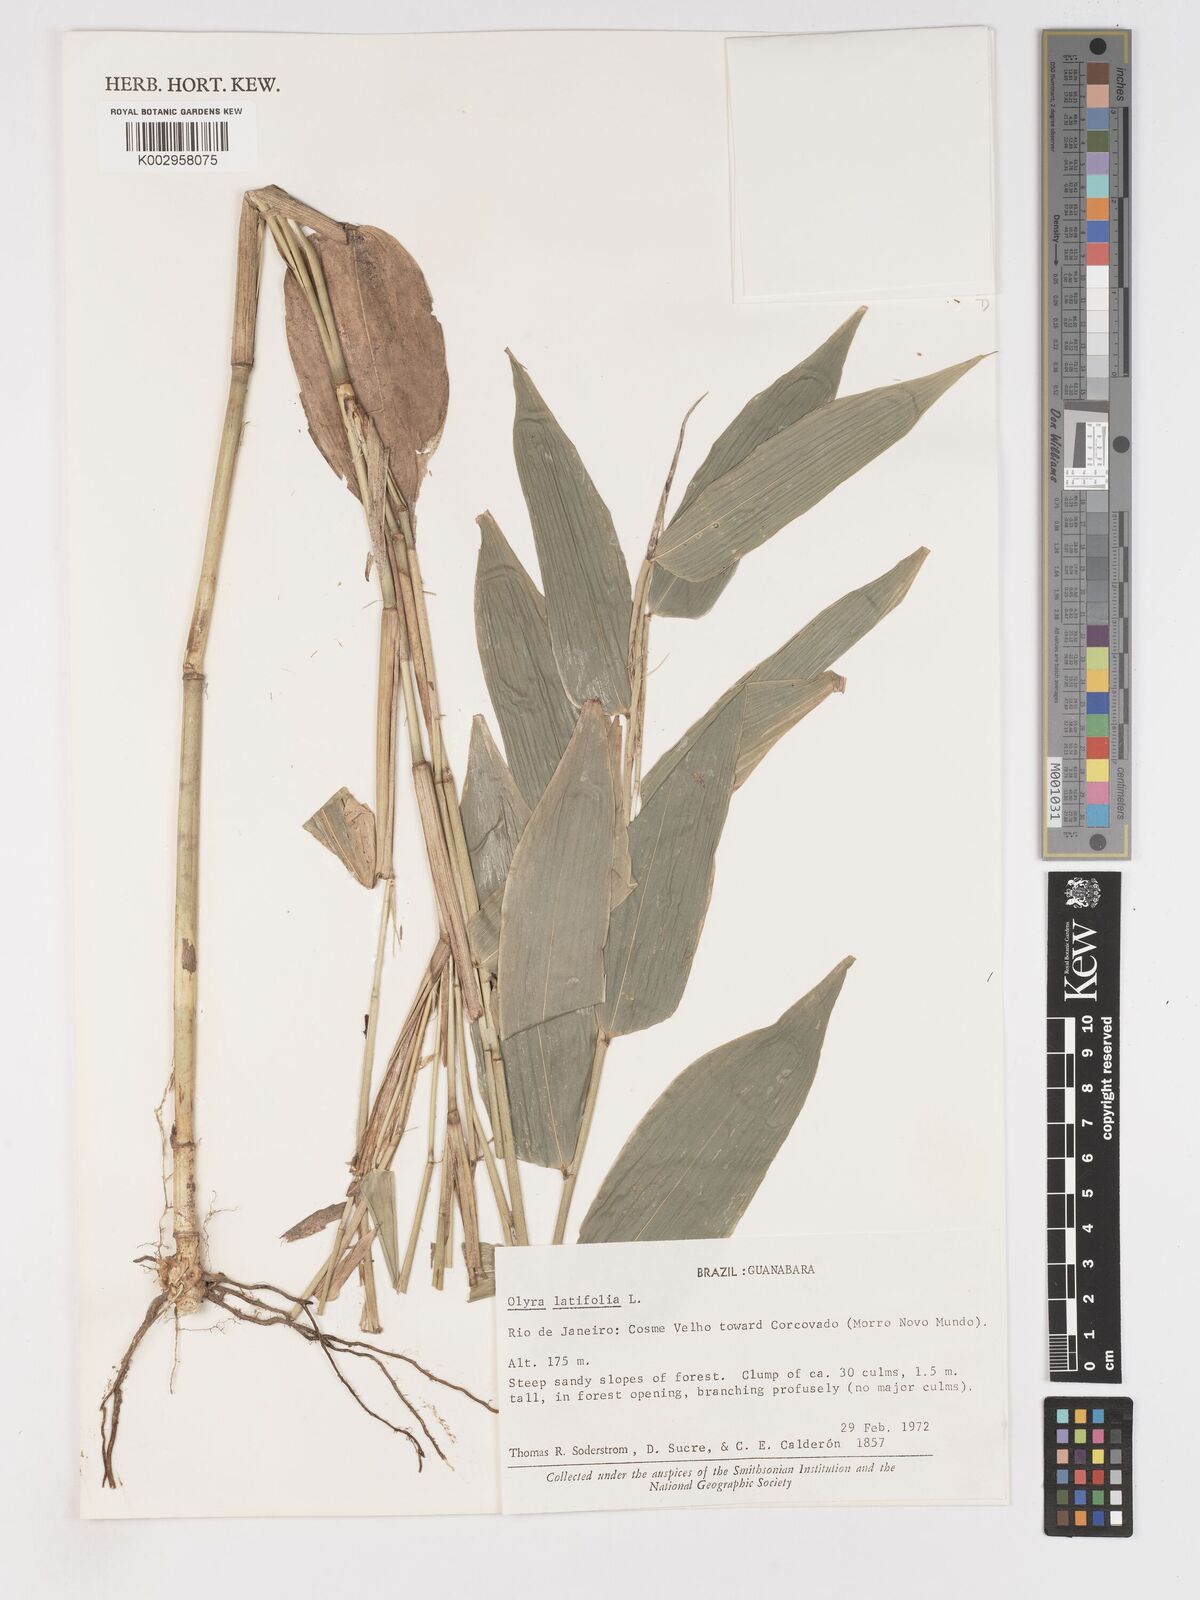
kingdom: Plantae
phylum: Tracheophyta
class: Liliopsida
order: Poales
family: Poaceae
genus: Olyra
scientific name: Olyra latifolia
